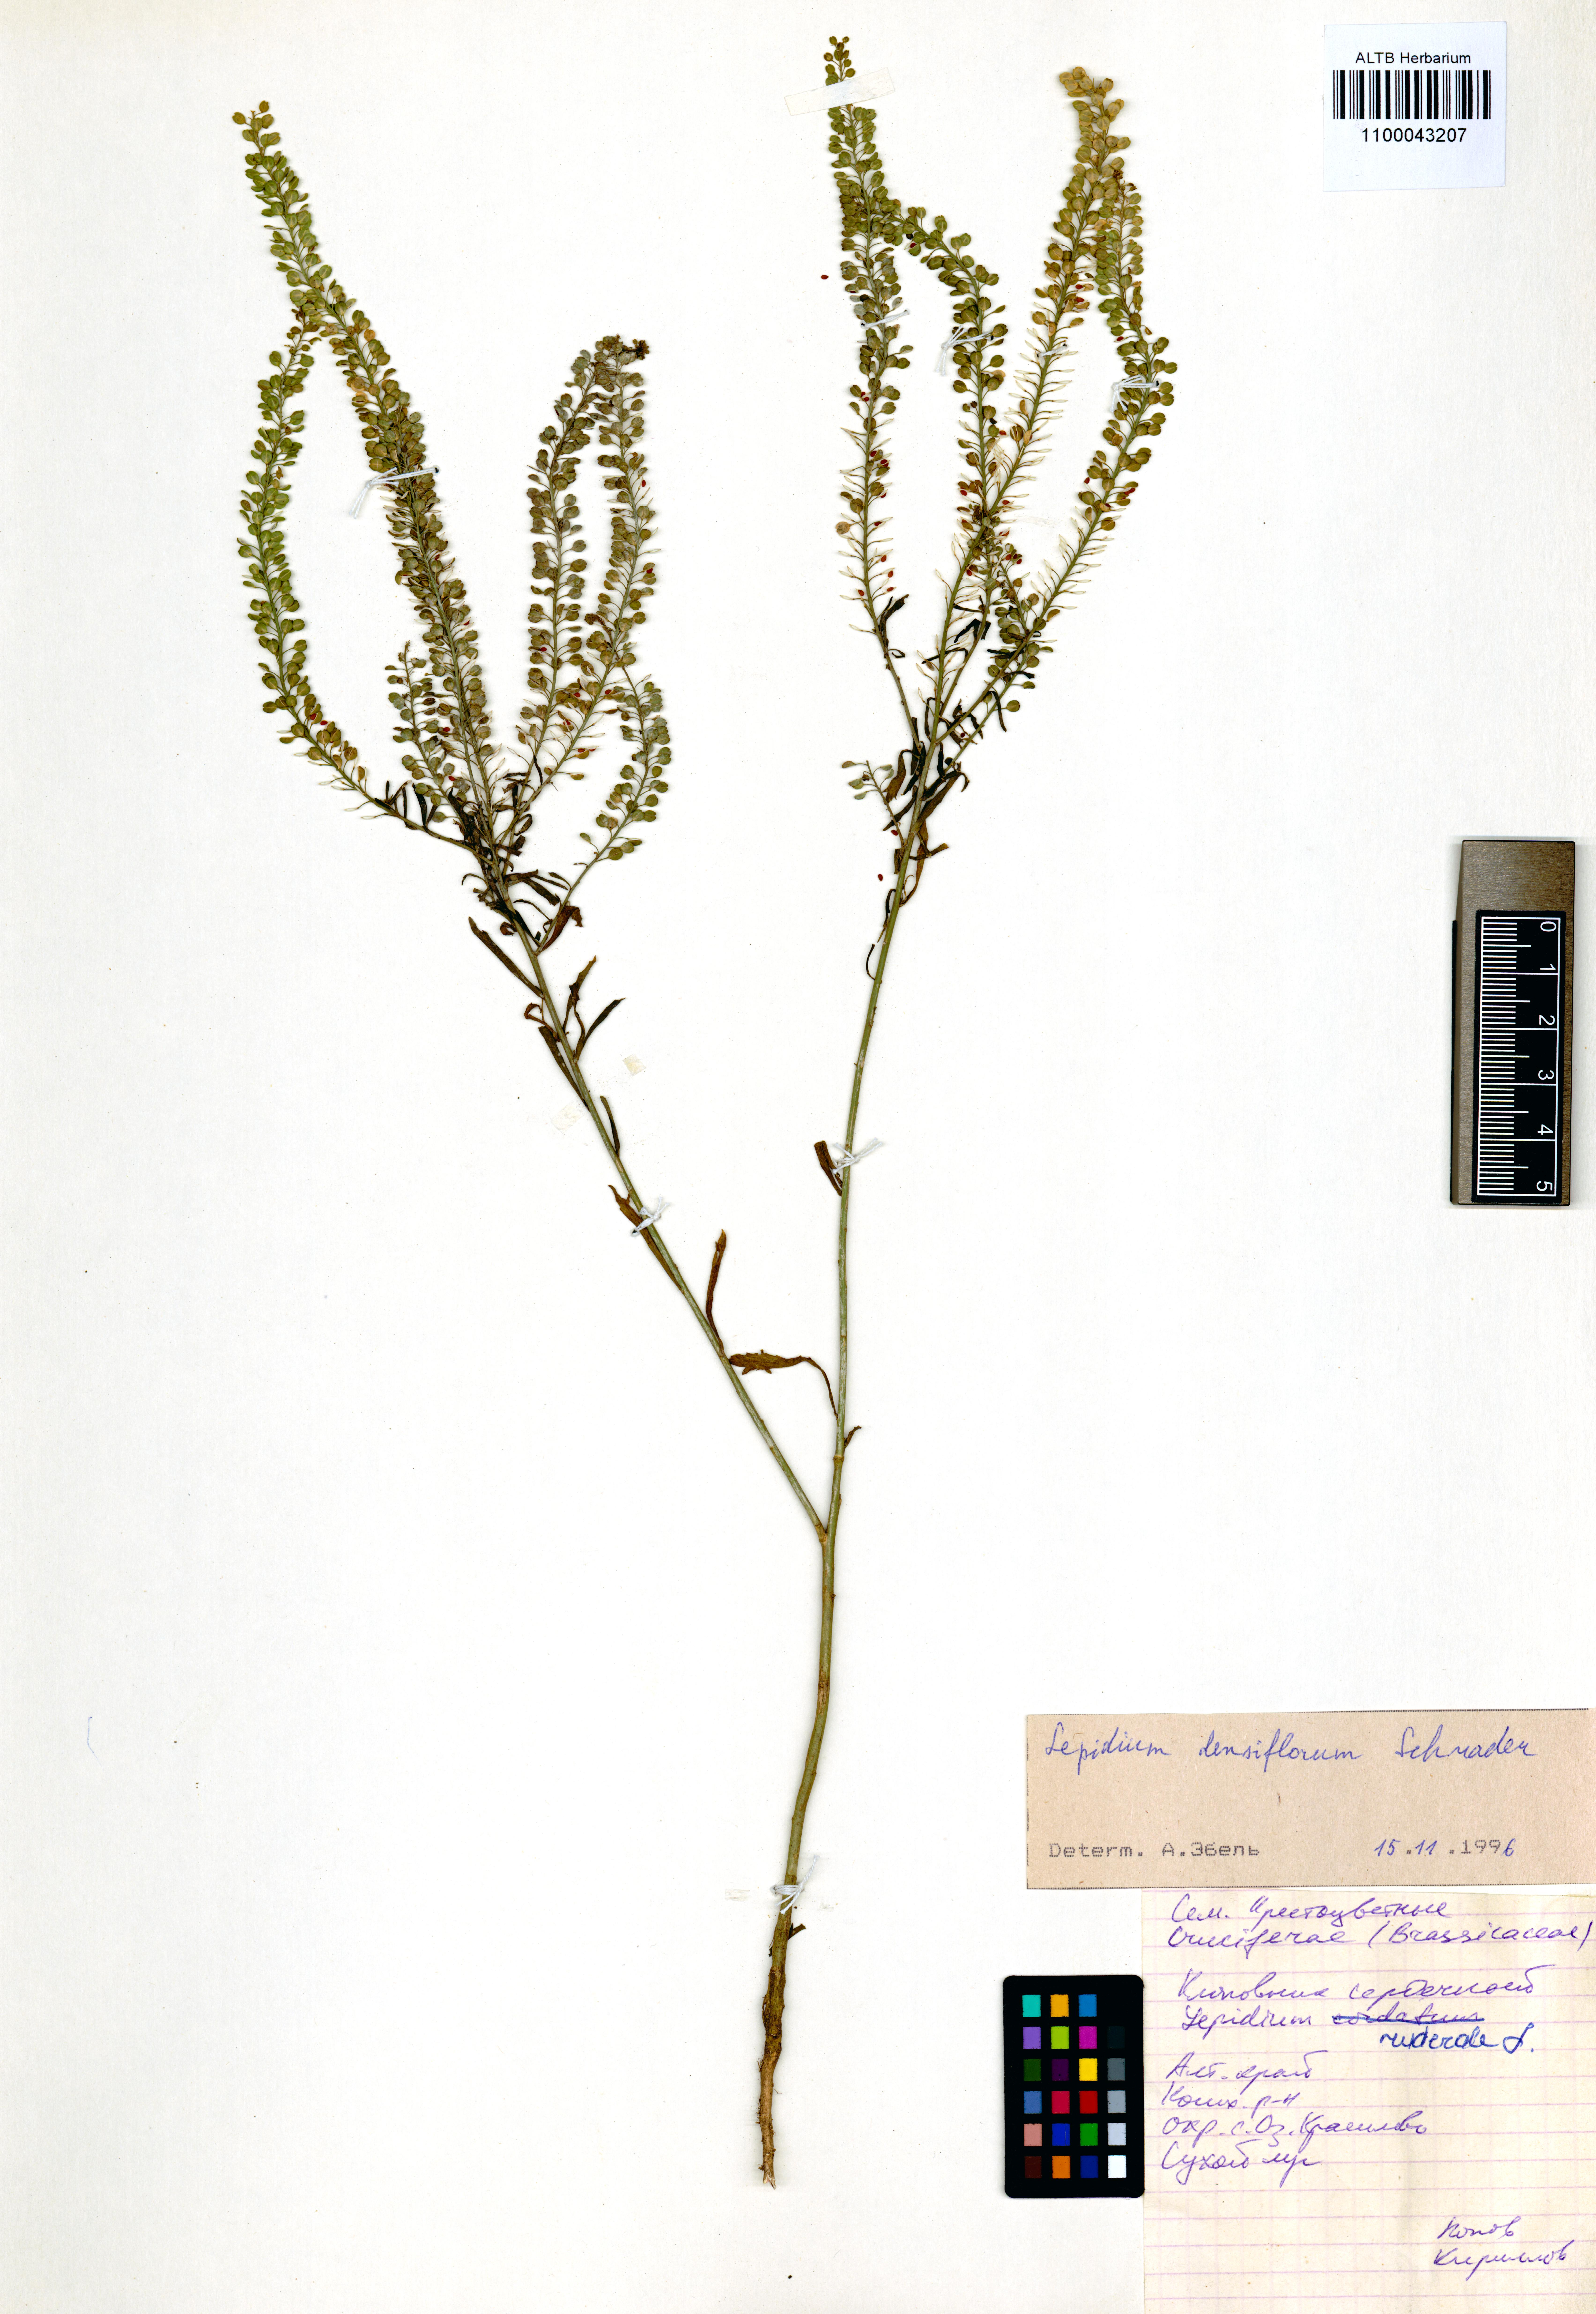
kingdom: Plantae
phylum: Tracheophyta
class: Magnoliopsida
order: Brassicales
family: Brassicaceae
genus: Lepidium
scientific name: Lepidium densiflorum
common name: Miner's pepperwort
